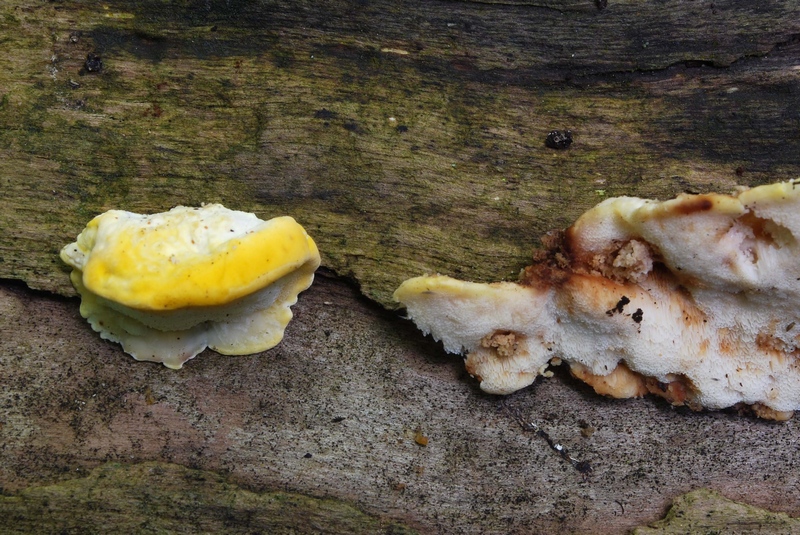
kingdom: Fungi
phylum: Basidiomycota
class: Agaricomycetes
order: Polyporales
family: Steccherinaceae
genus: Antrodiella
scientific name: Antrodiella serpula
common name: gulrandet elastikporesvamp
